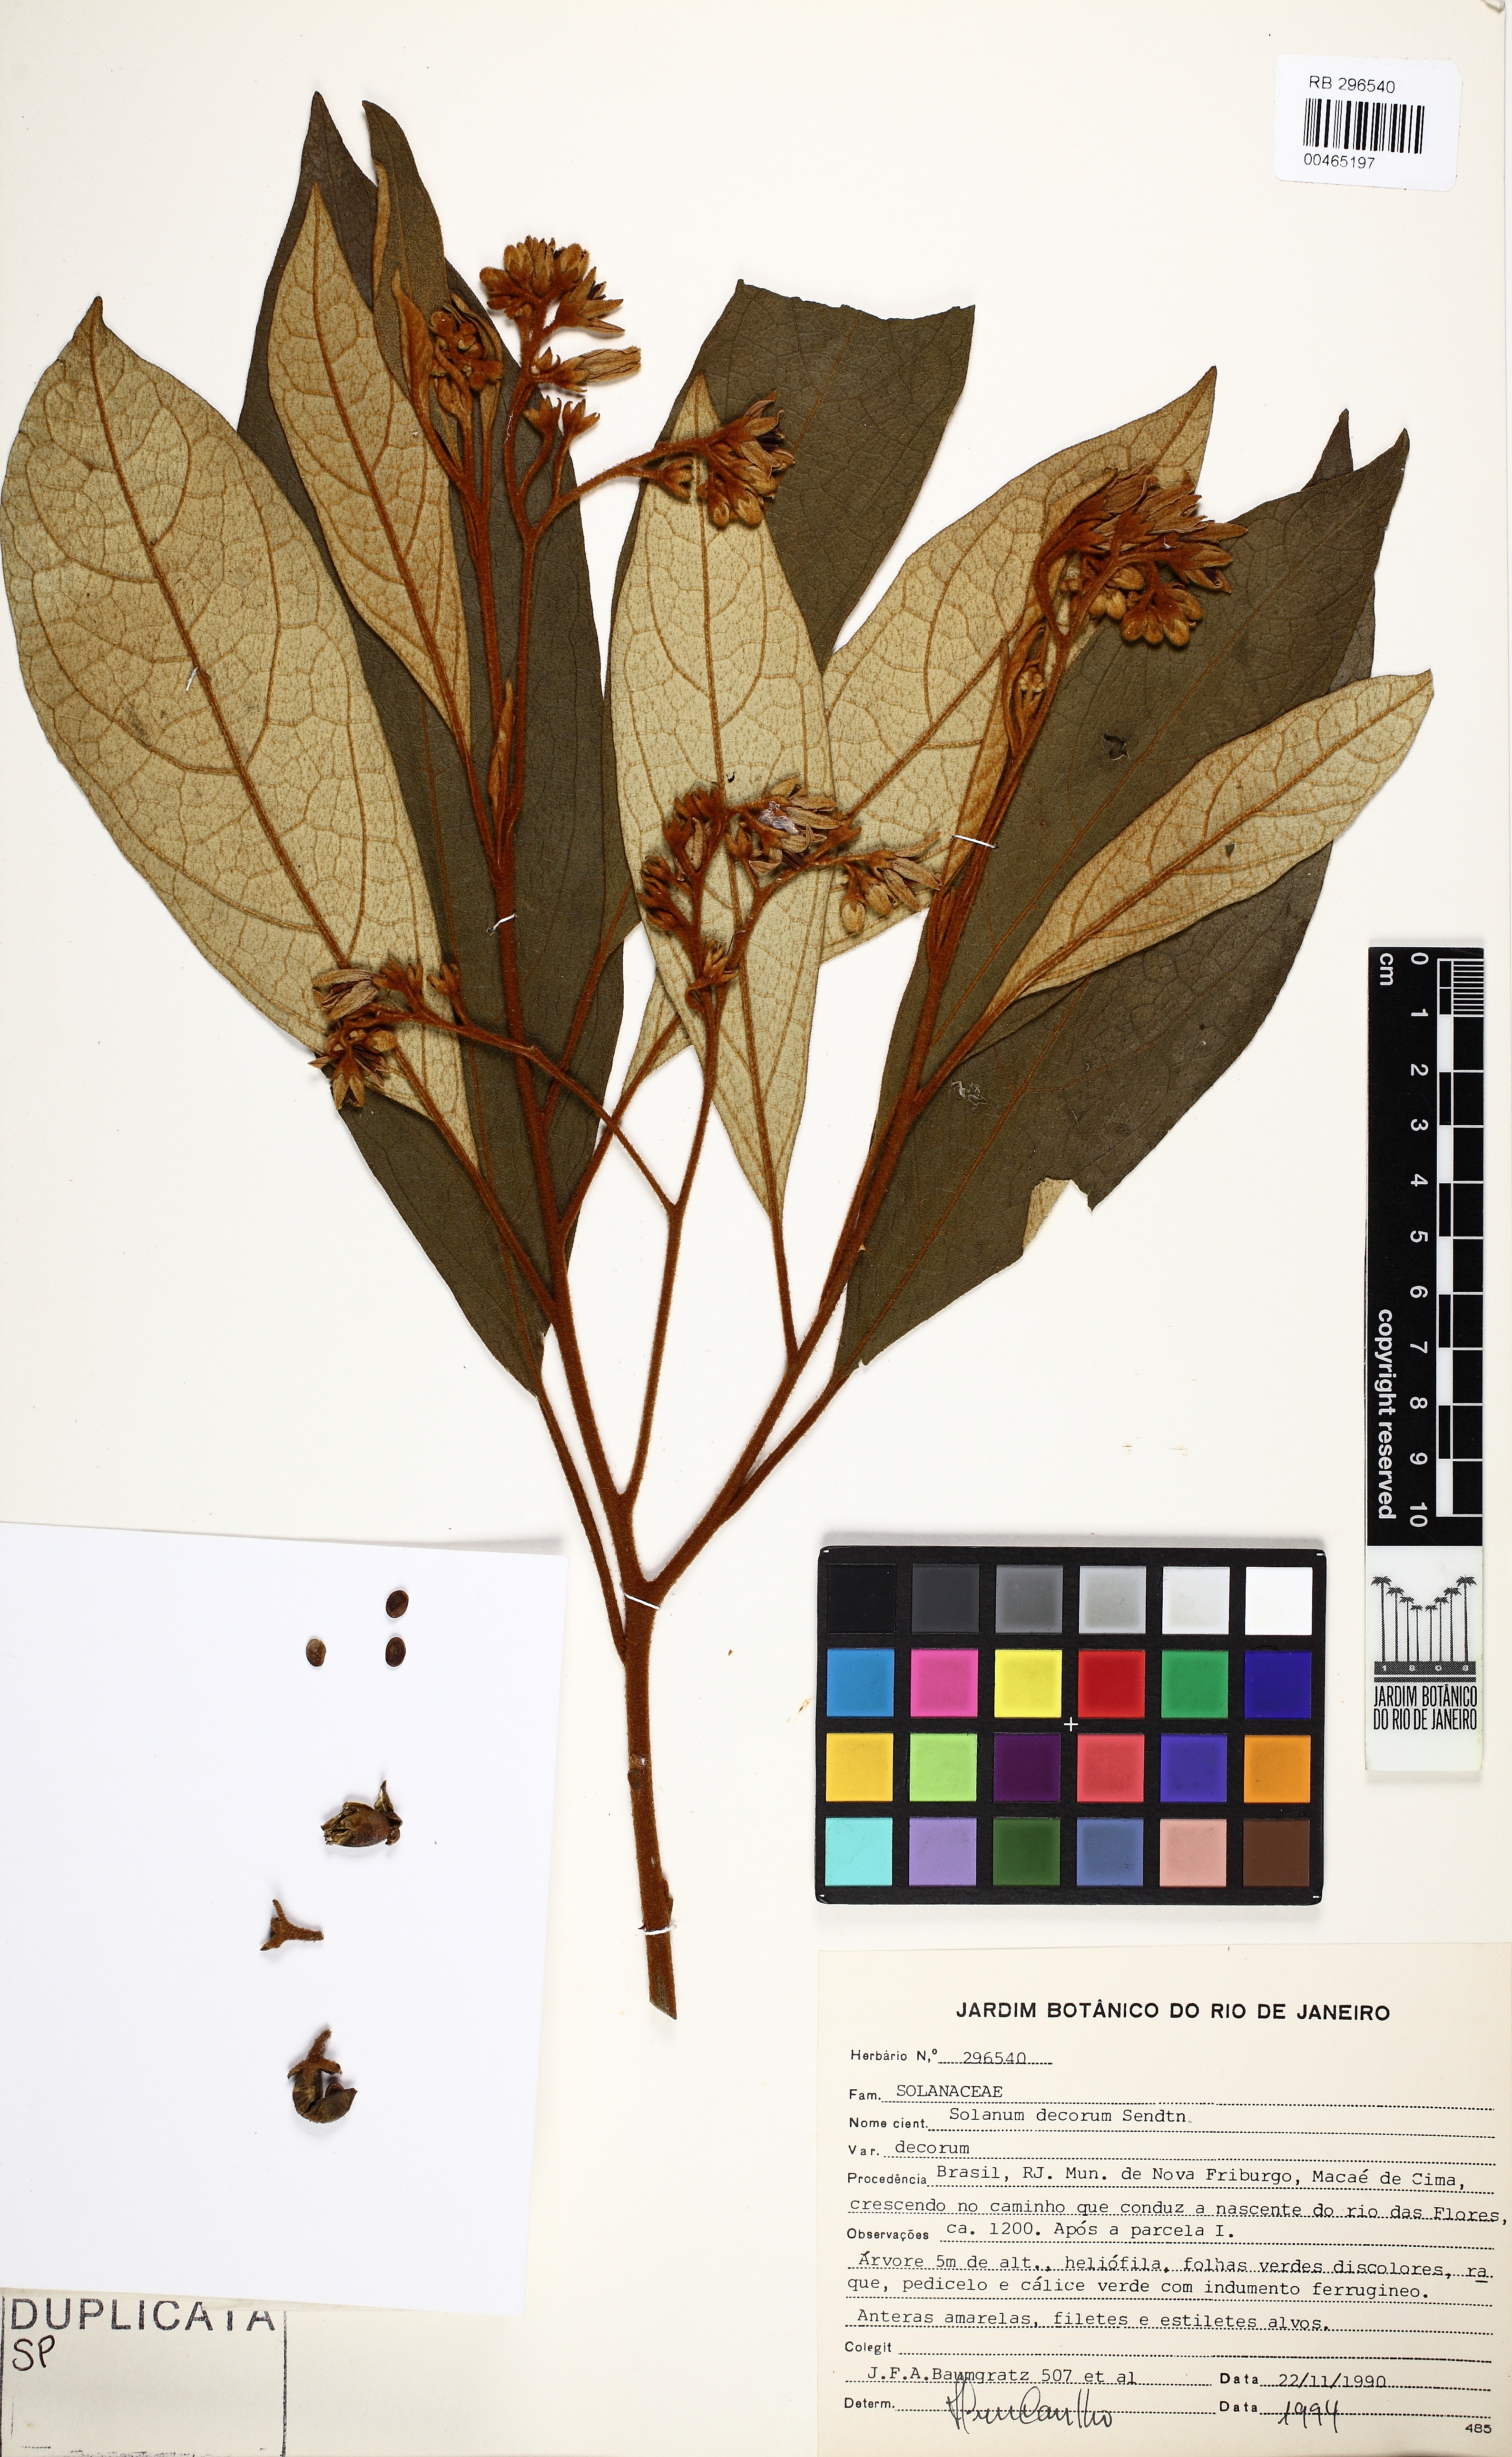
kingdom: Plantae
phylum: Tracheophyta
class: Magnoliopsida
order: Solanales
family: Solanaceae
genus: Solanum
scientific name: Solanum decorum
